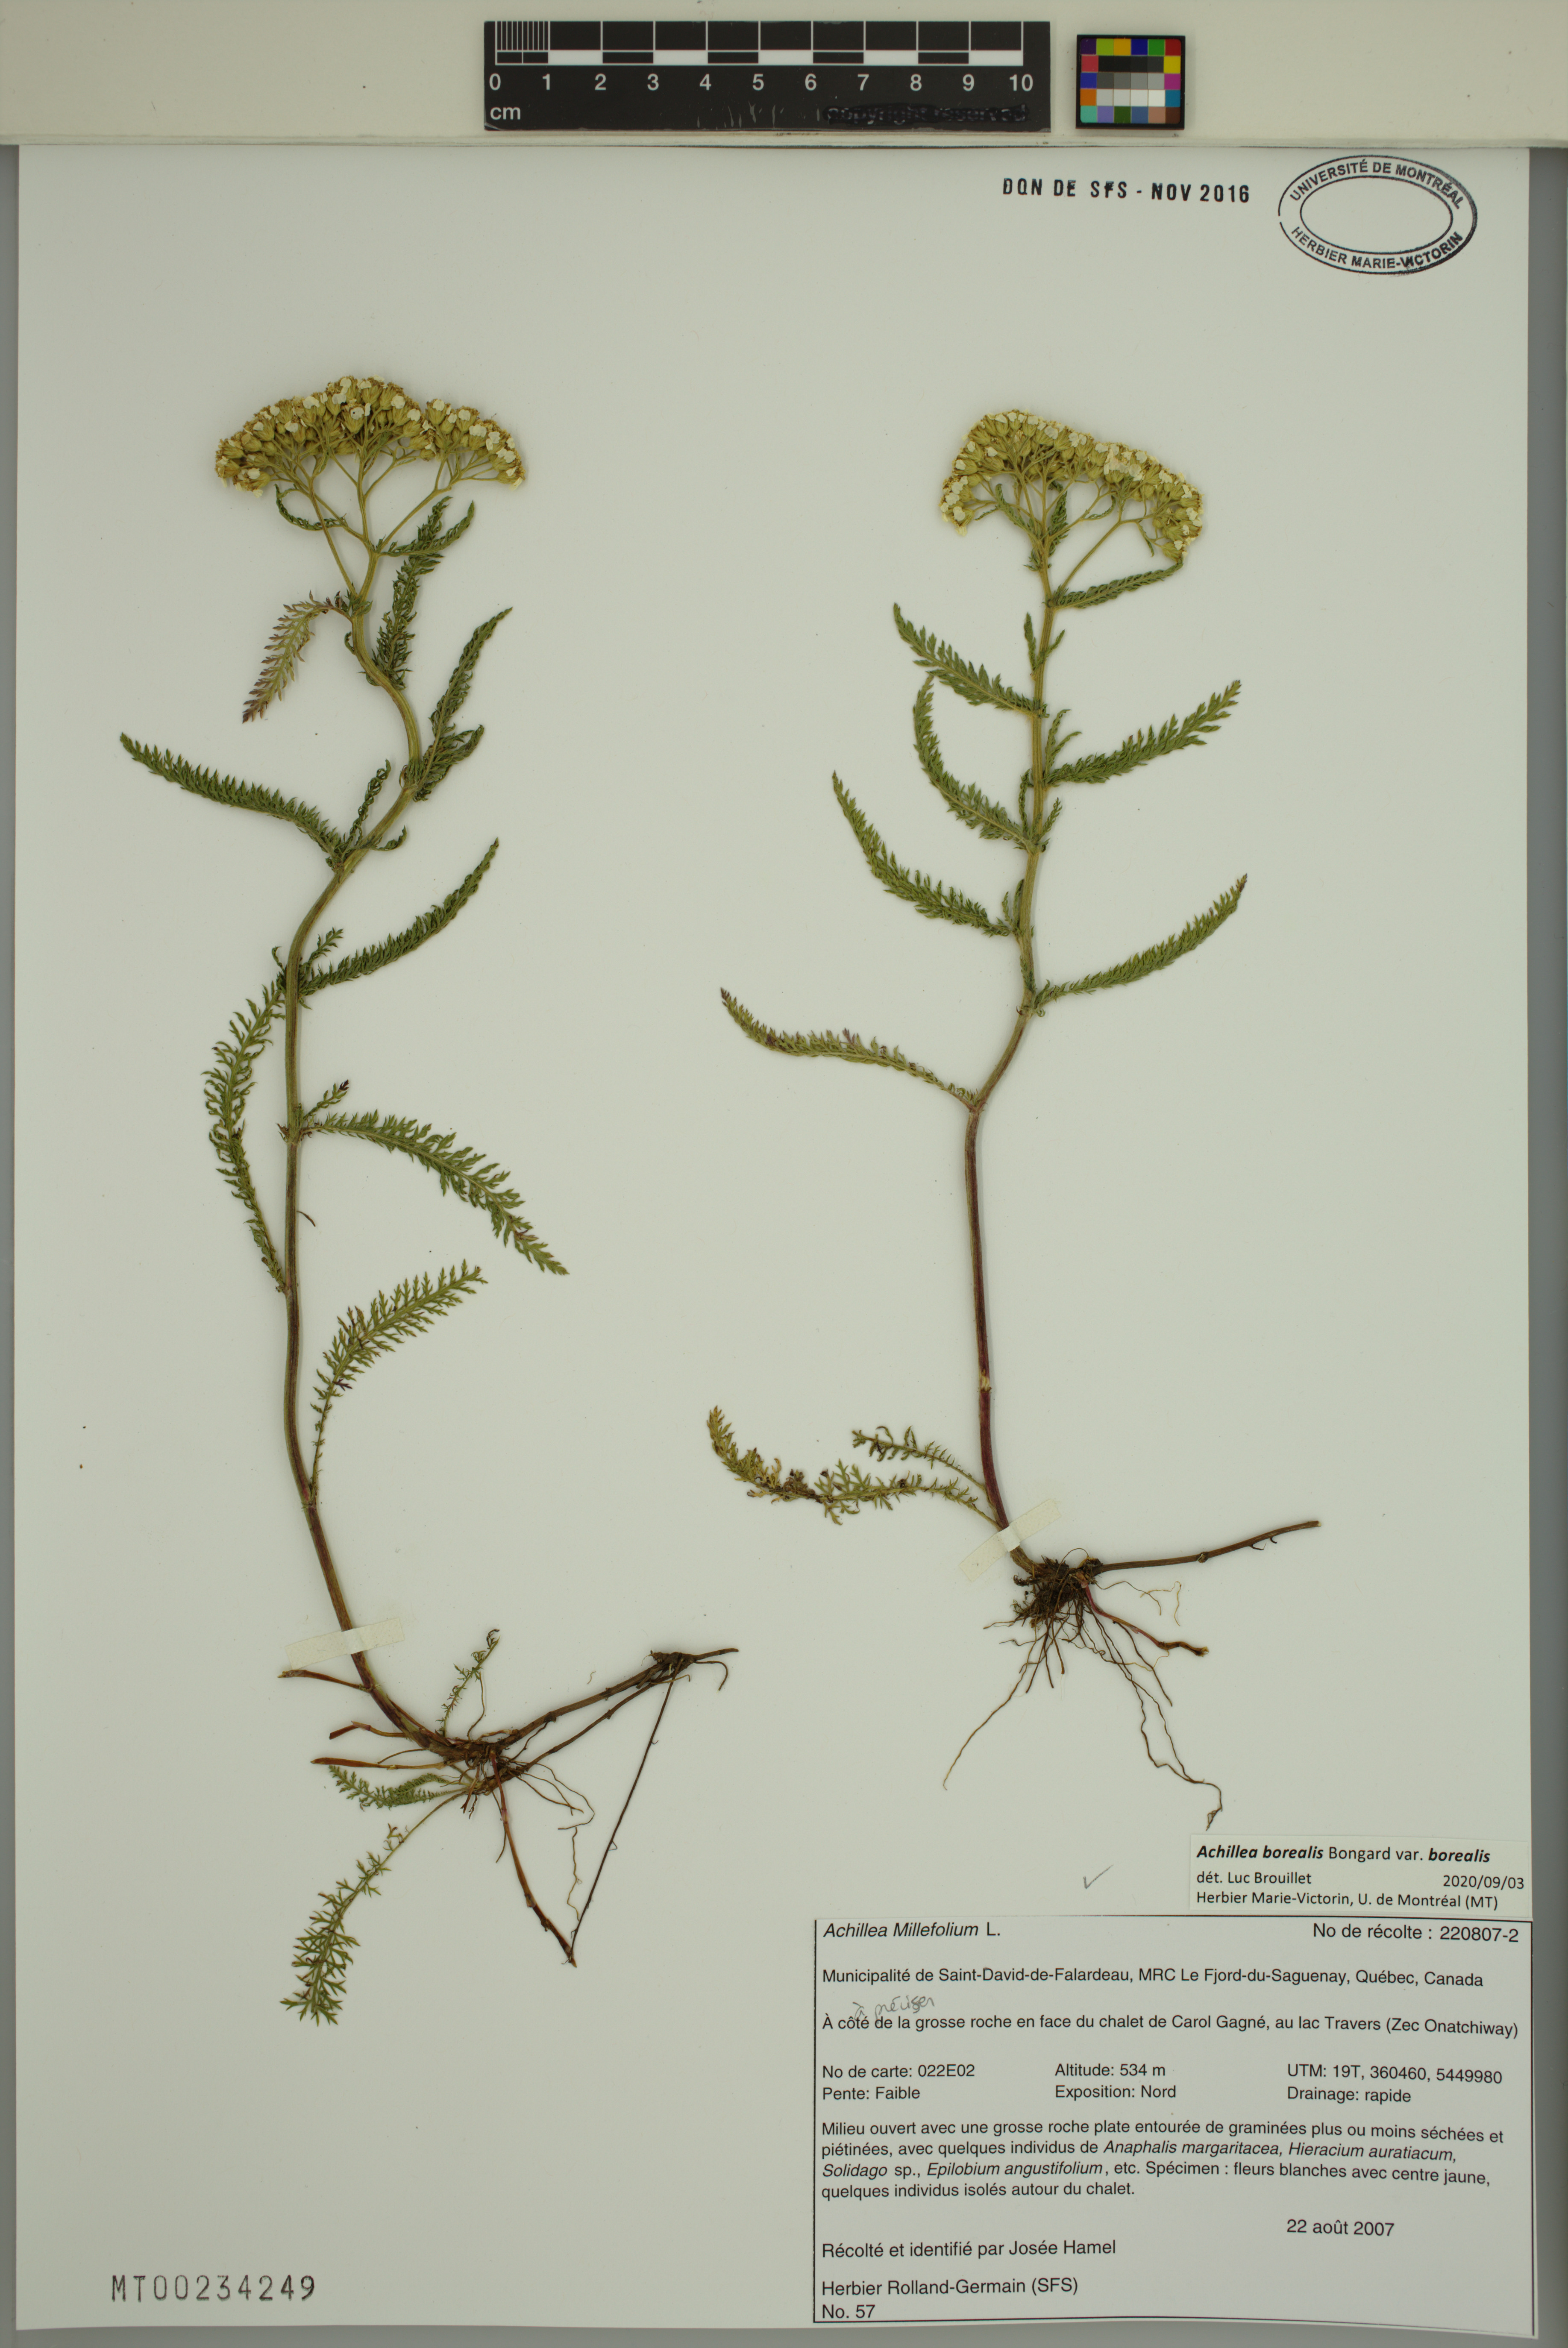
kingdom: Plantae
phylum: Tracheophyta
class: Magnoliopsida
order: Asterales
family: Asteraceae
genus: Achillea
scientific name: Achillea millefolium
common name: Yarrow
